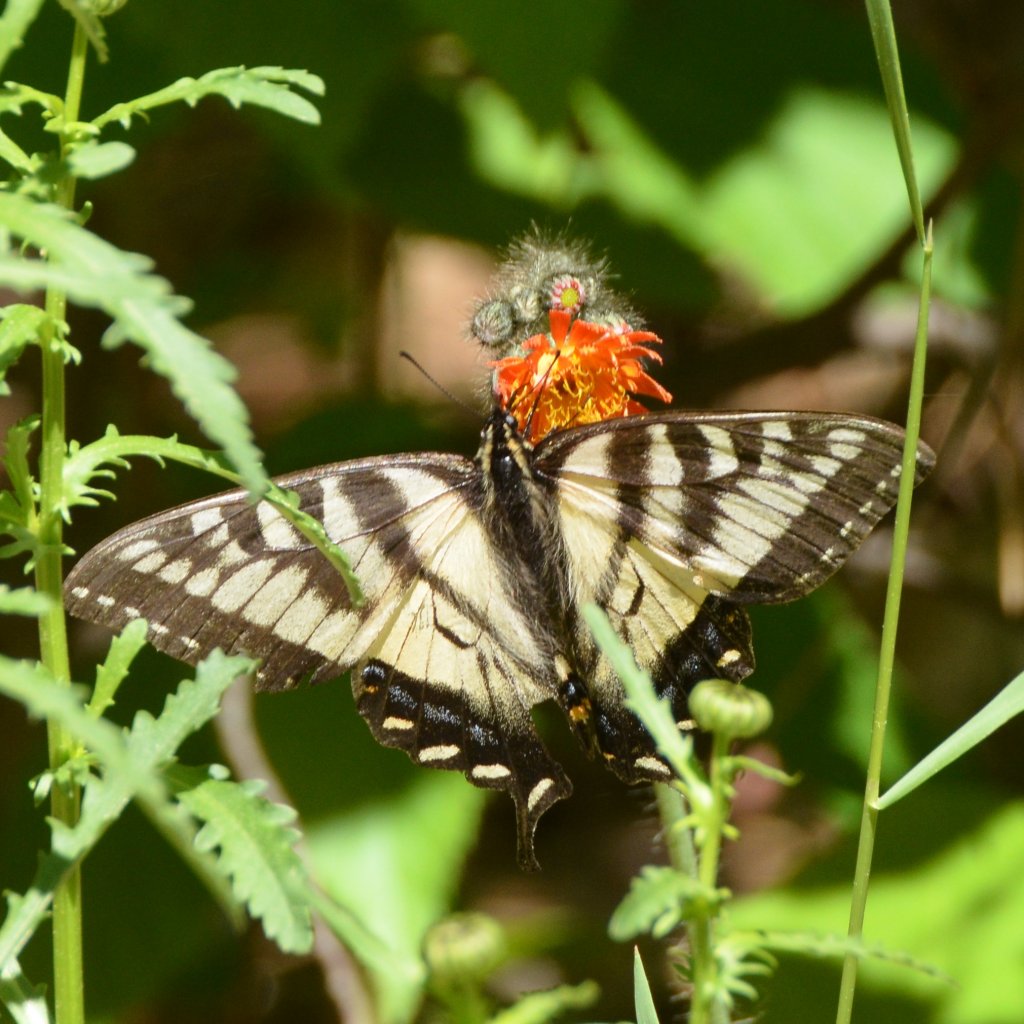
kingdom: Animalia
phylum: Arthropoda
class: Insecta
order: Lepidoptera
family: Papilionidae
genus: Pterourus
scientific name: Pterourus canadensis
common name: Canadian Tiger Swallowtail
